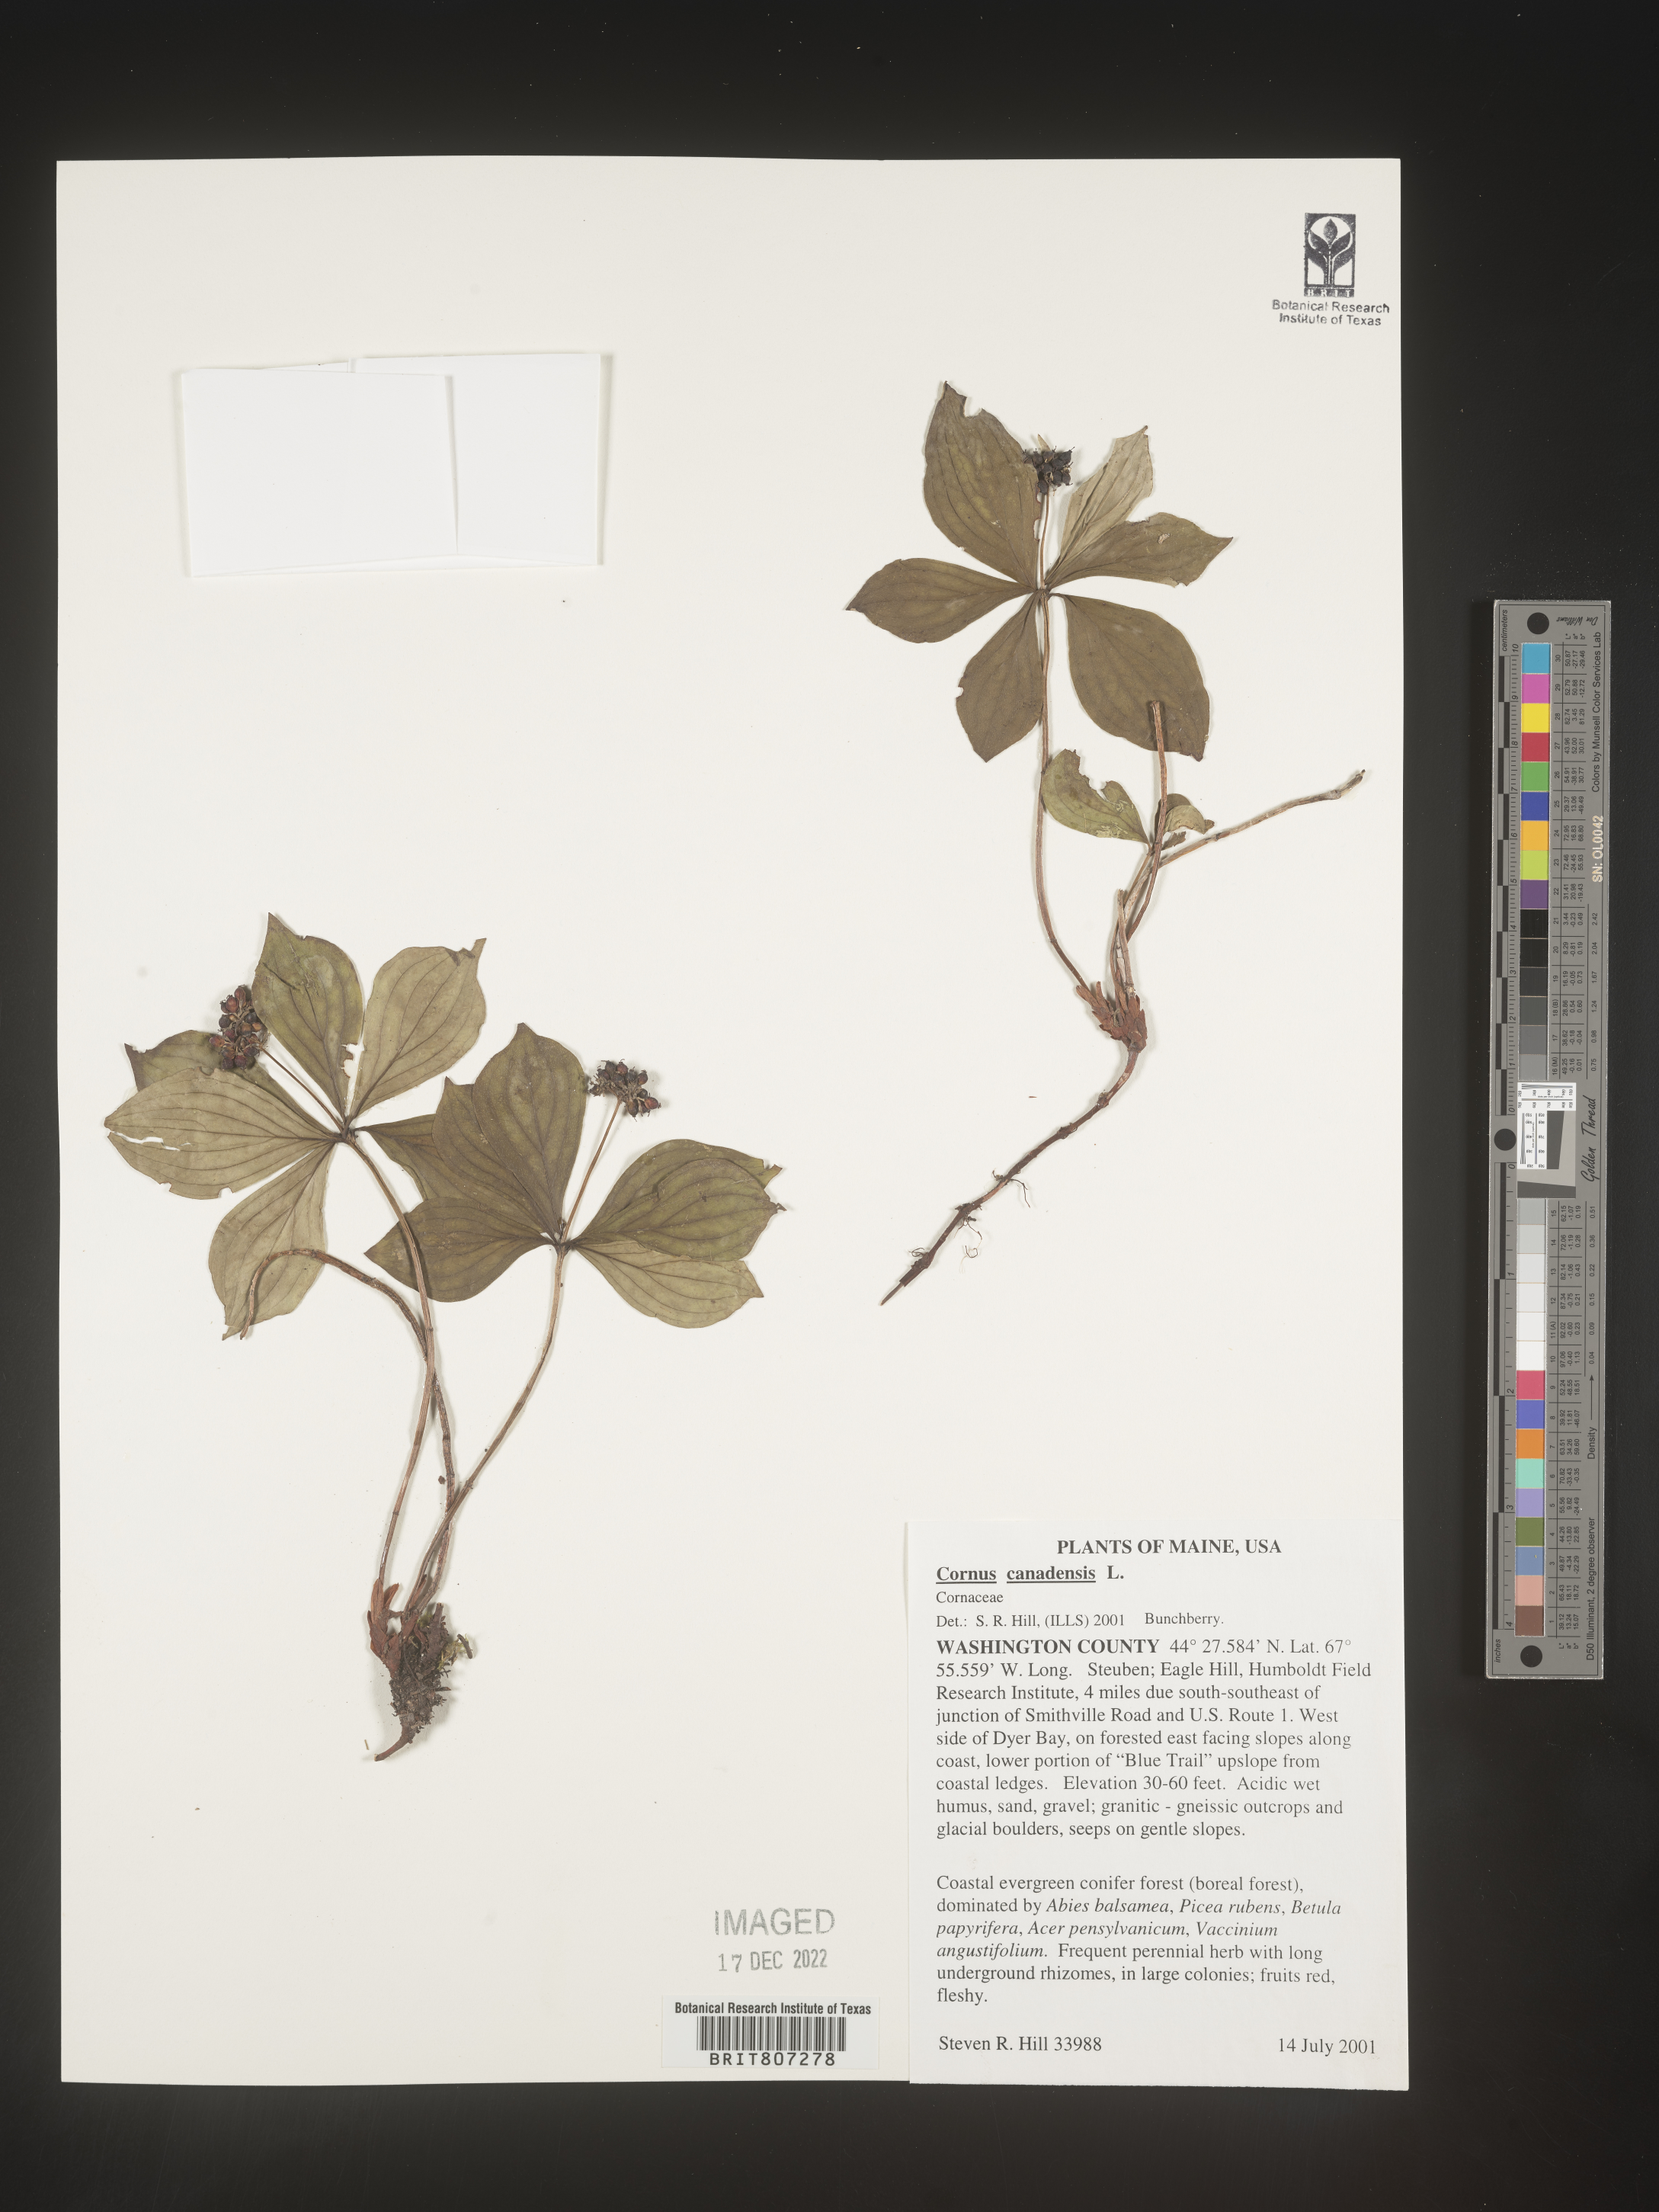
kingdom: Plantae
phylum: Tracheophyta
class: Magnoliopsida
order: Cornales
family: Cornaceae
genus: Cornus
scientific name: Cornus canadensis
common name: Creeping dogwood
